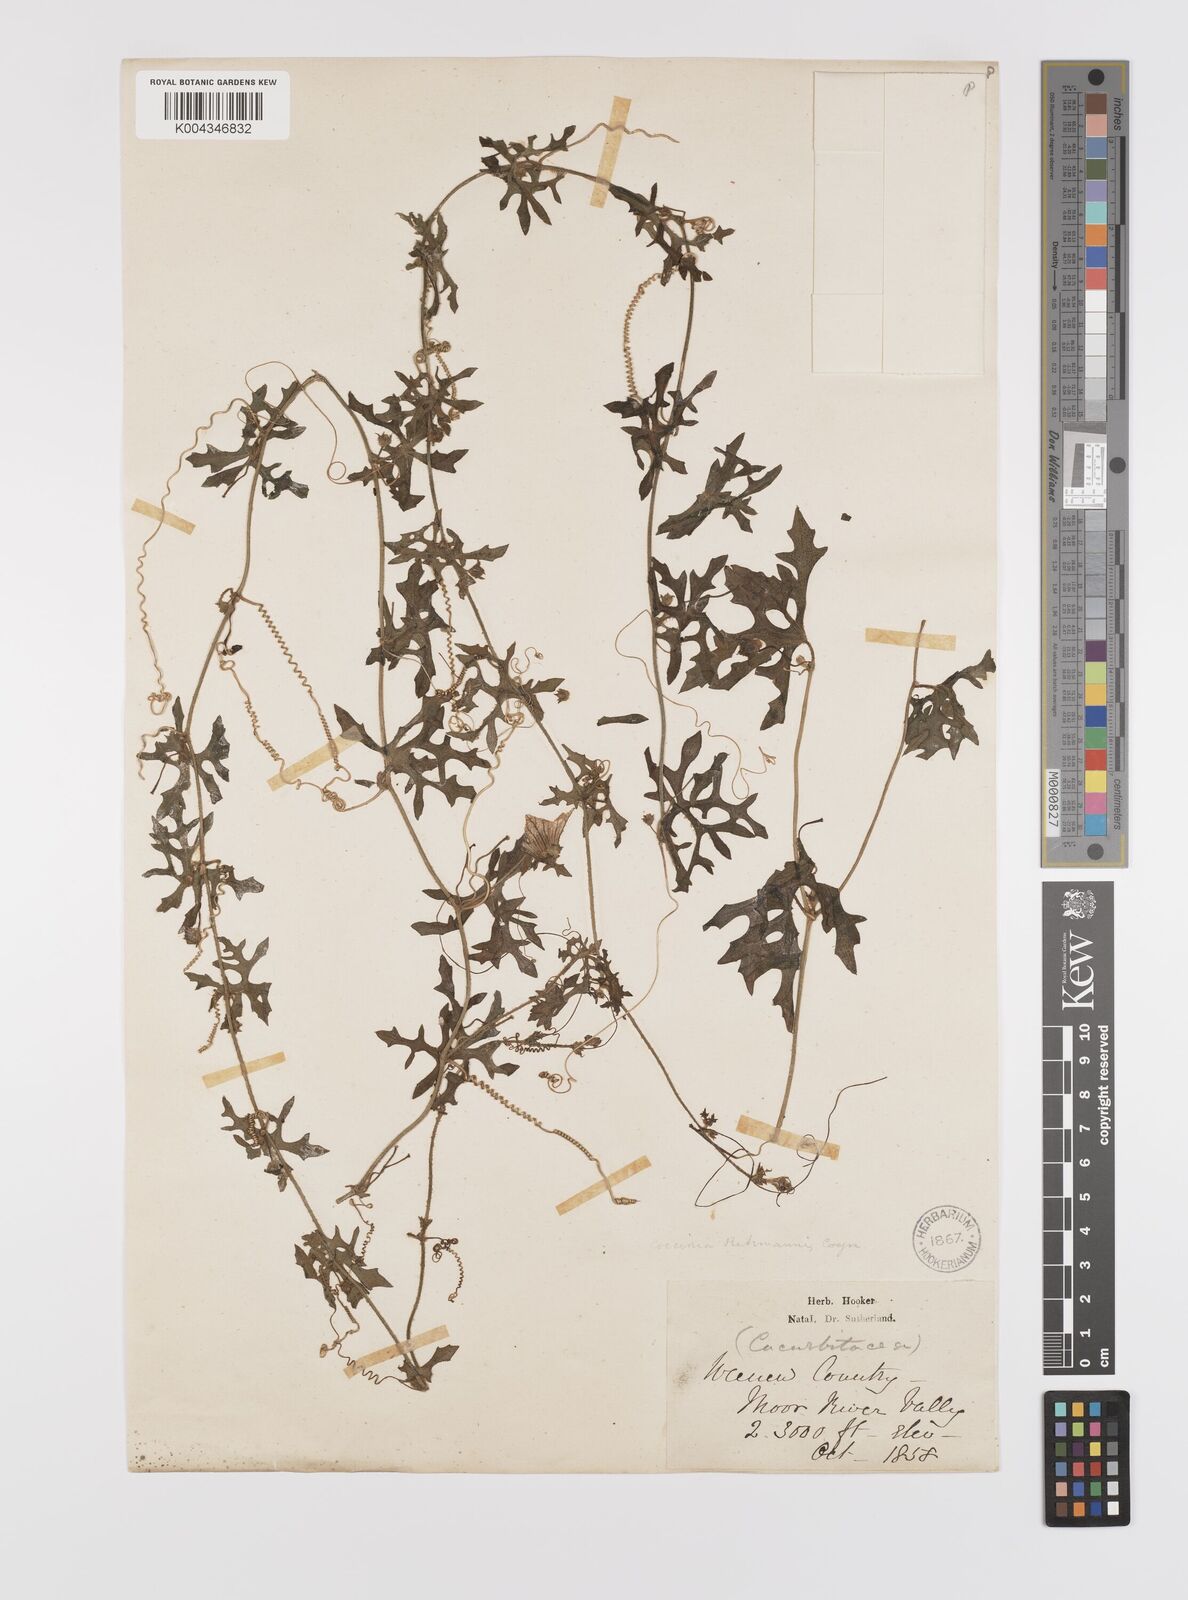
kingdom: Plantae
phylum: Tracheophyta
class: Magnoliopsida
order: Cucurbitales
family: Cucurbitaceae
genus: Coccinia
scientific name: Coccinia rehmannii
